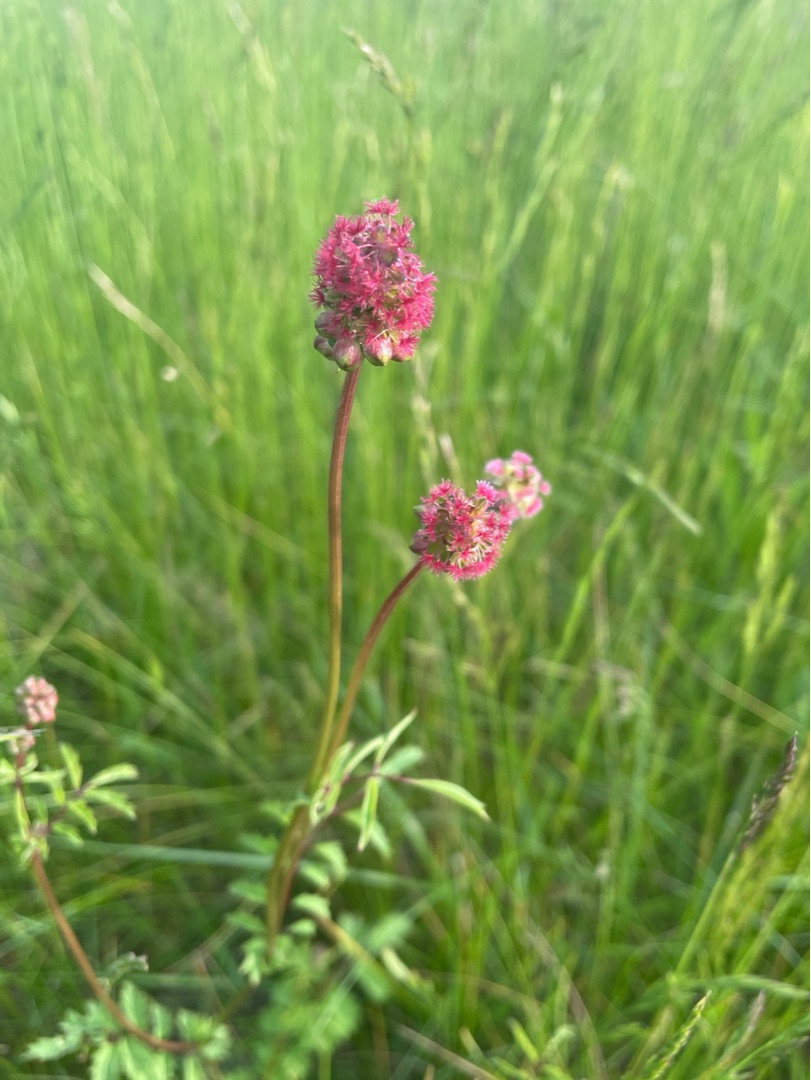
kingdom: Plantae
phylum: Tracheophyta
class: Magnoliopsida
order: Rosales
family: Rosaceae
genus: Poterium
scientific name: Poterium sanguisorba
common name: Bibernelle
